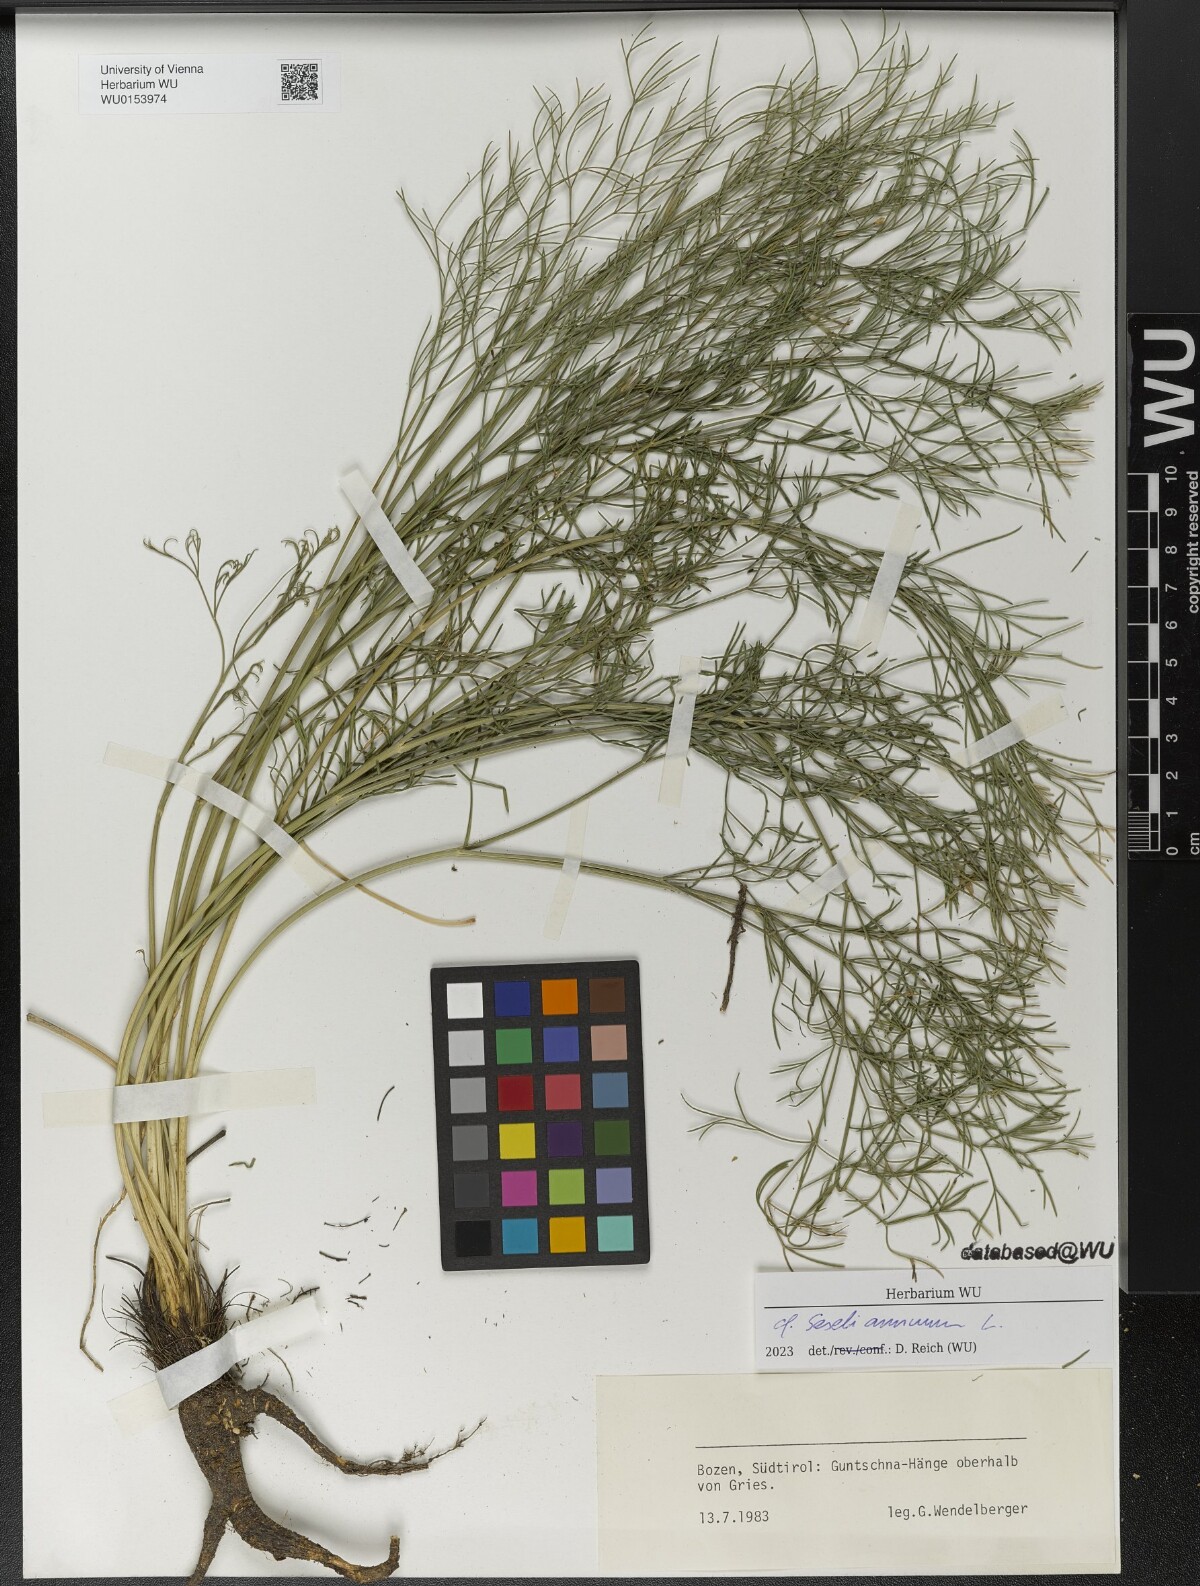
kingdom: Plantae
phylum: Tracheophyta
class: Magnoliopsida
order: Apiales
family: Apiaceae
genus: Seseli
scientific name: Seseli annuum
